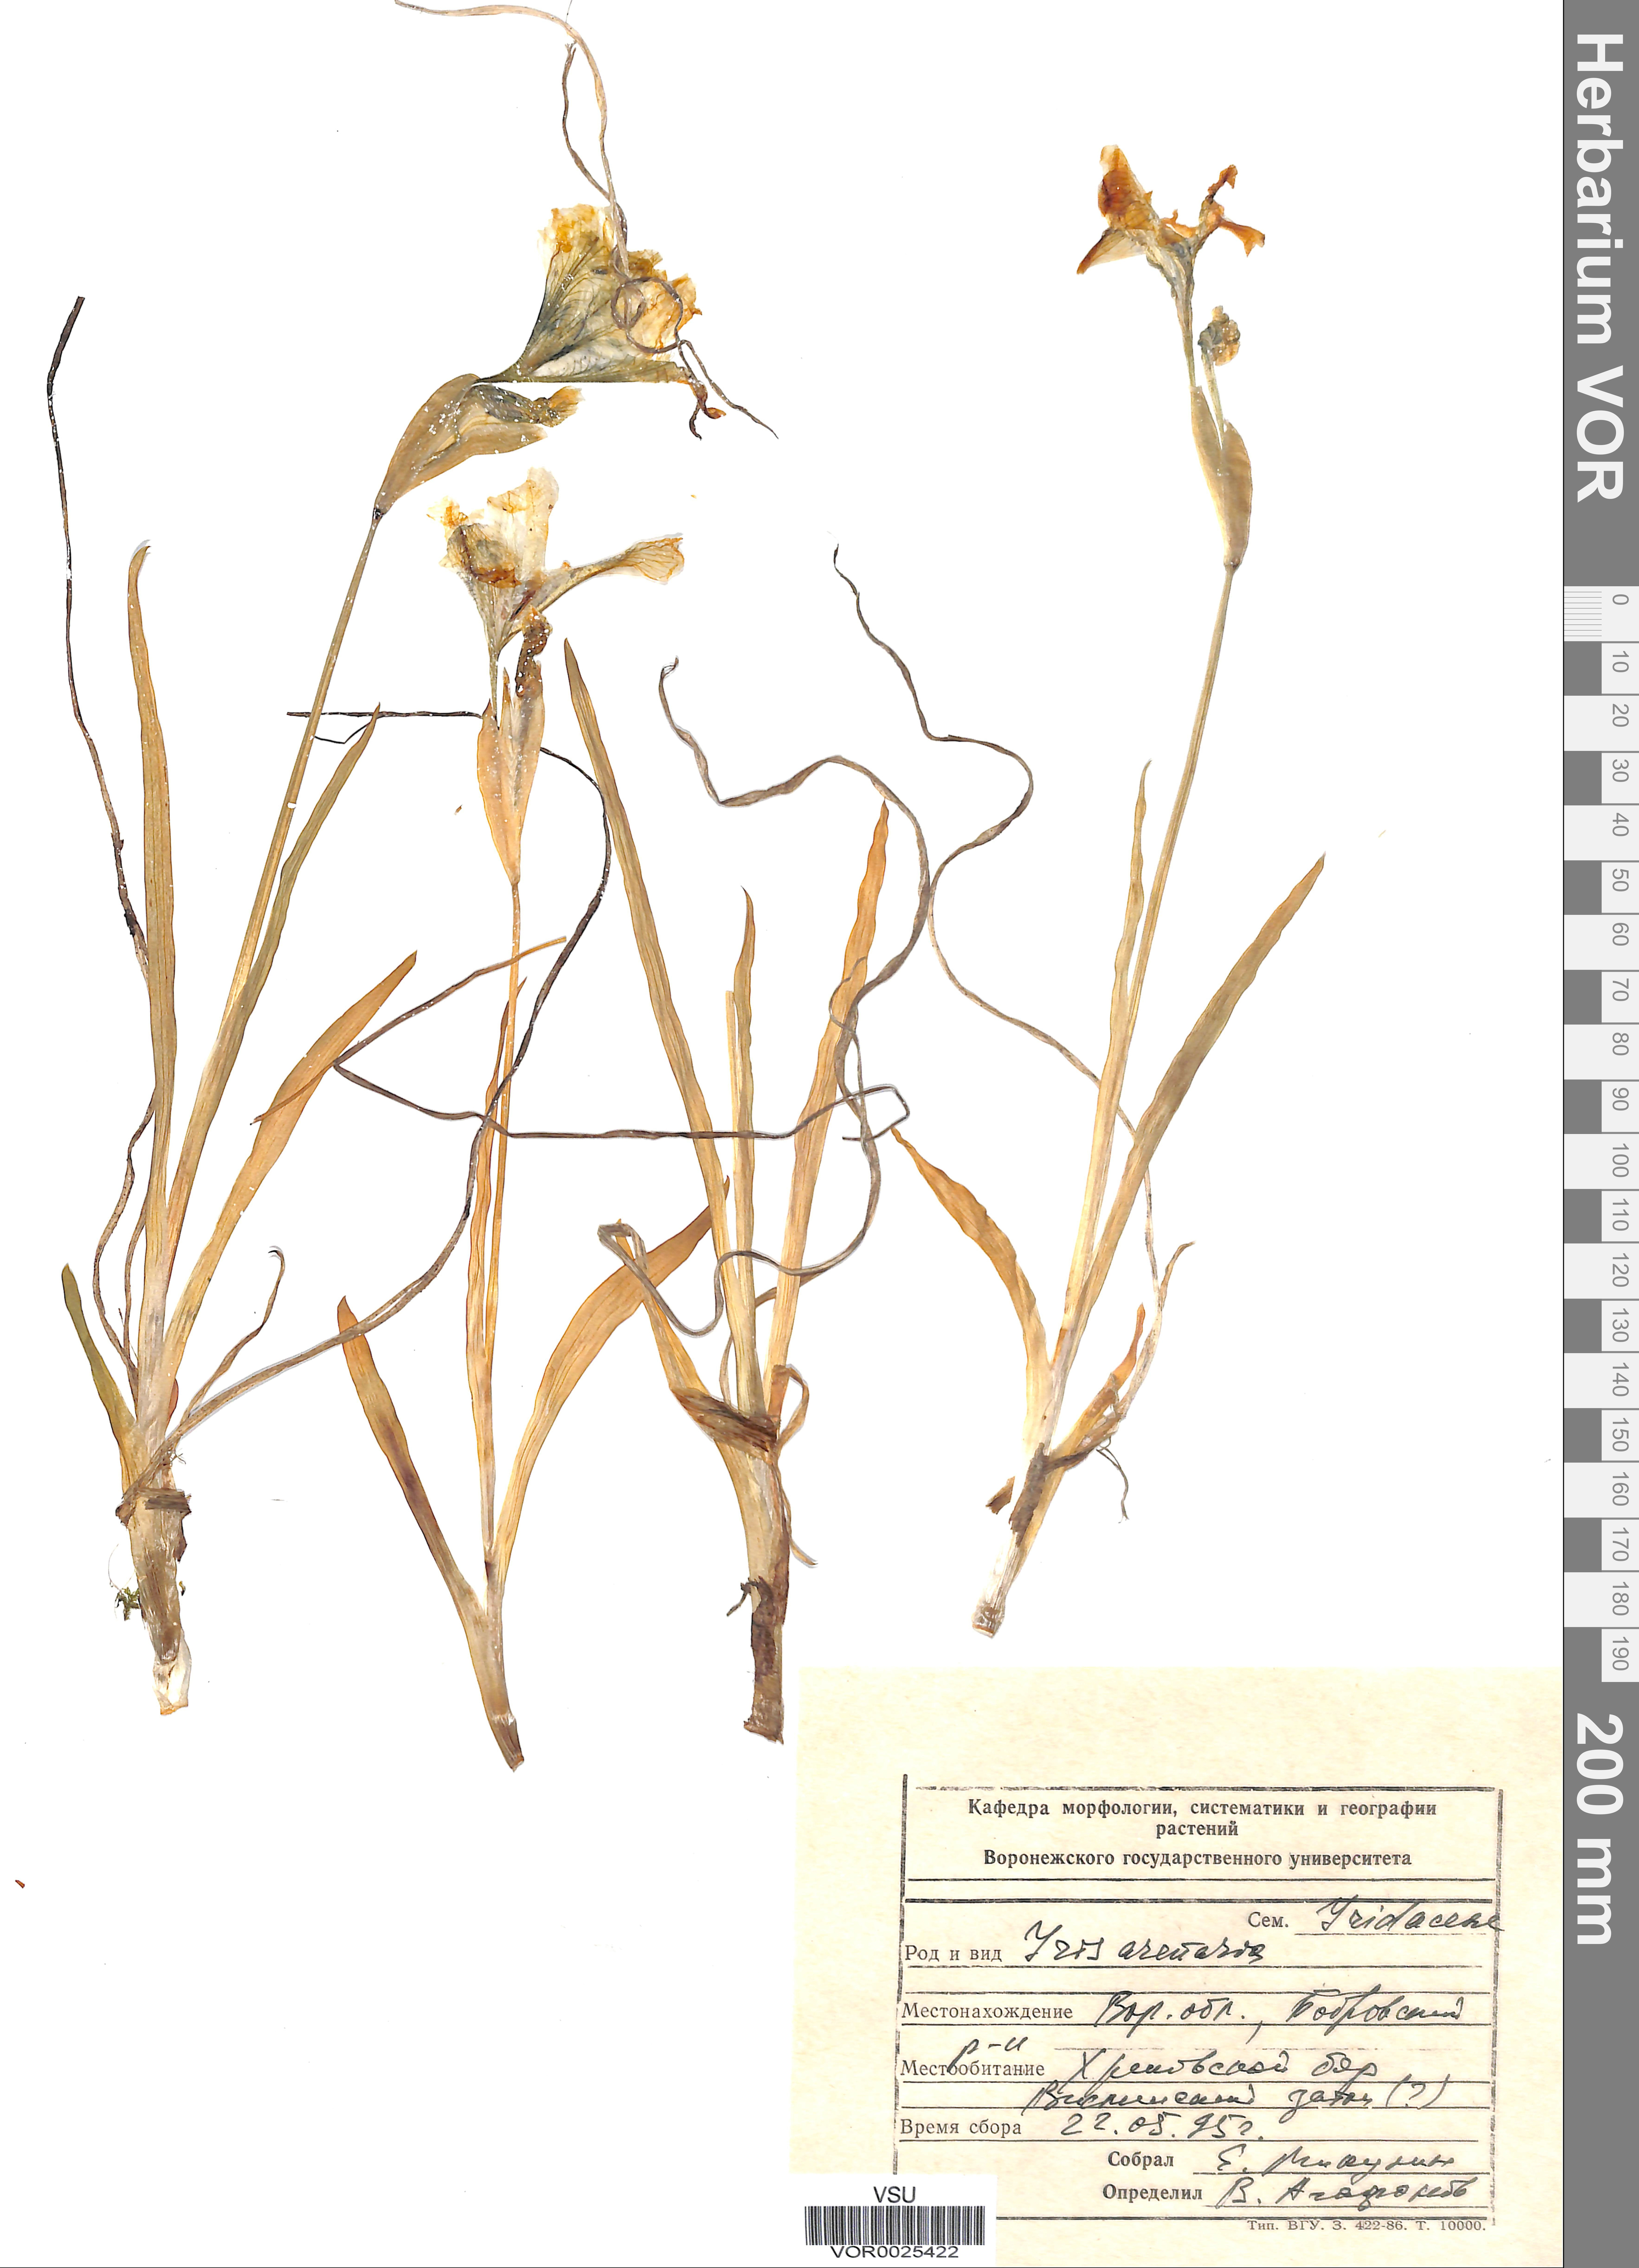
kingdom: Plantae
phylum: Tracheophyta
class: Liliopsida
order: Asparagales
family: Iridaceae
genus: Iris
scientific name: Iris arenaria
